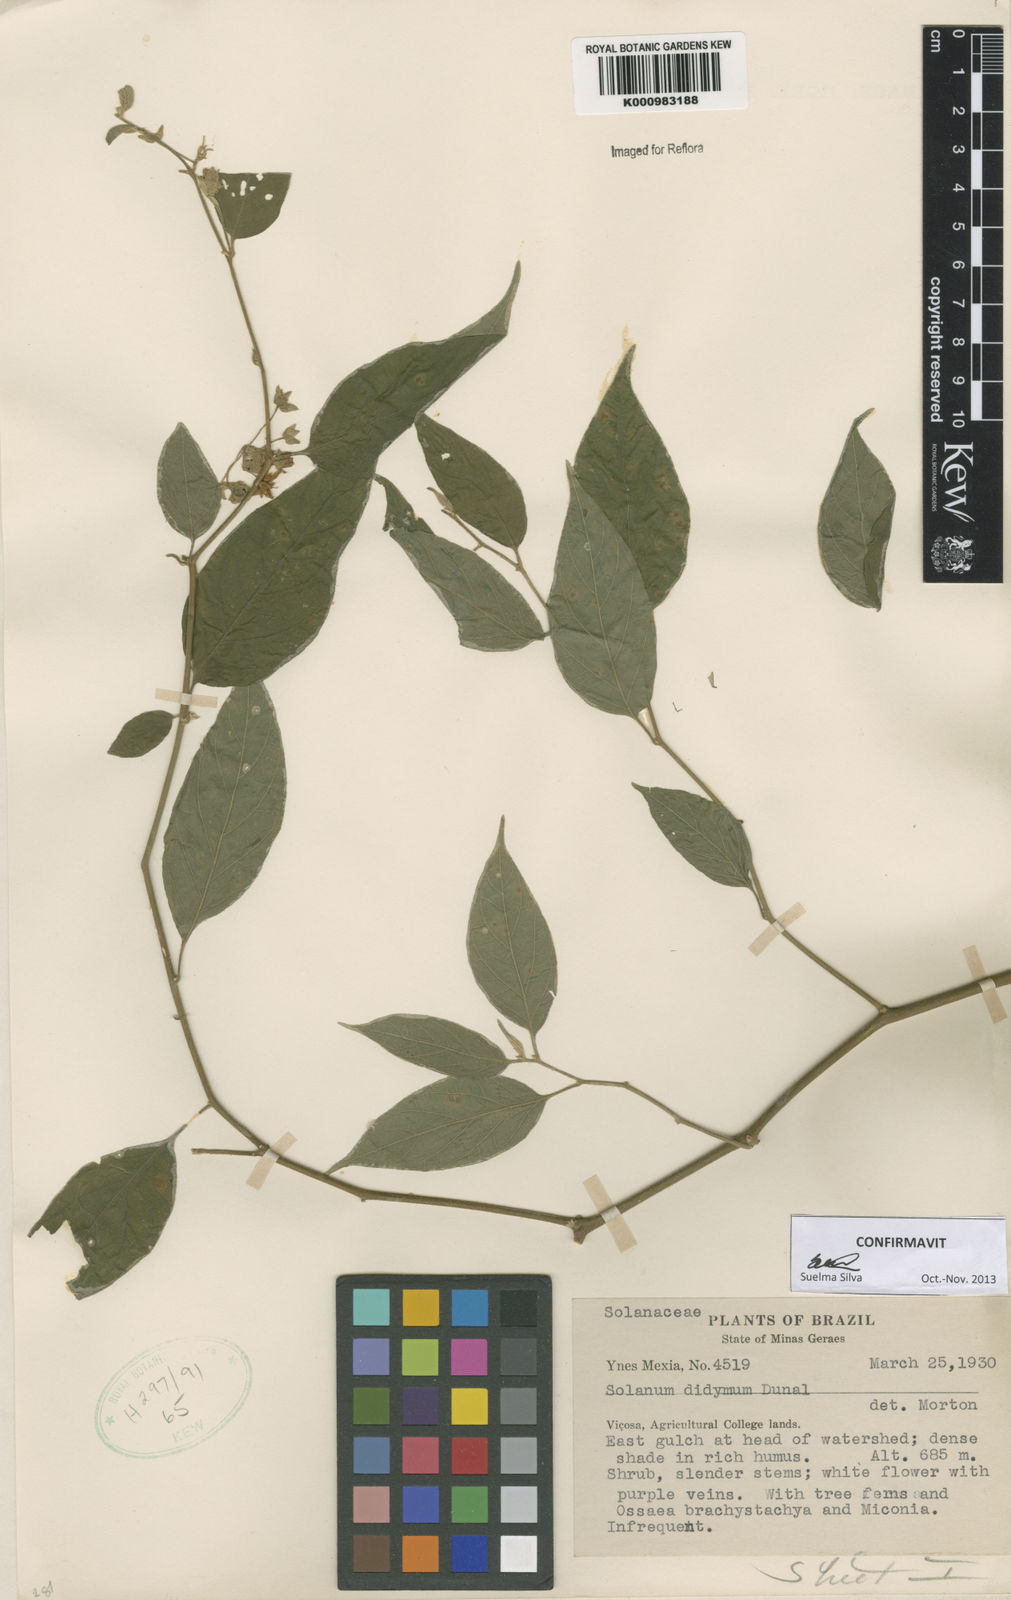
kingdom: Plantae
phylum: Tracheophyta
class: Magnoliopsida
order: Solanales
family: Solanaceae
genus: Solanum
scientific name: Solanum didymum
